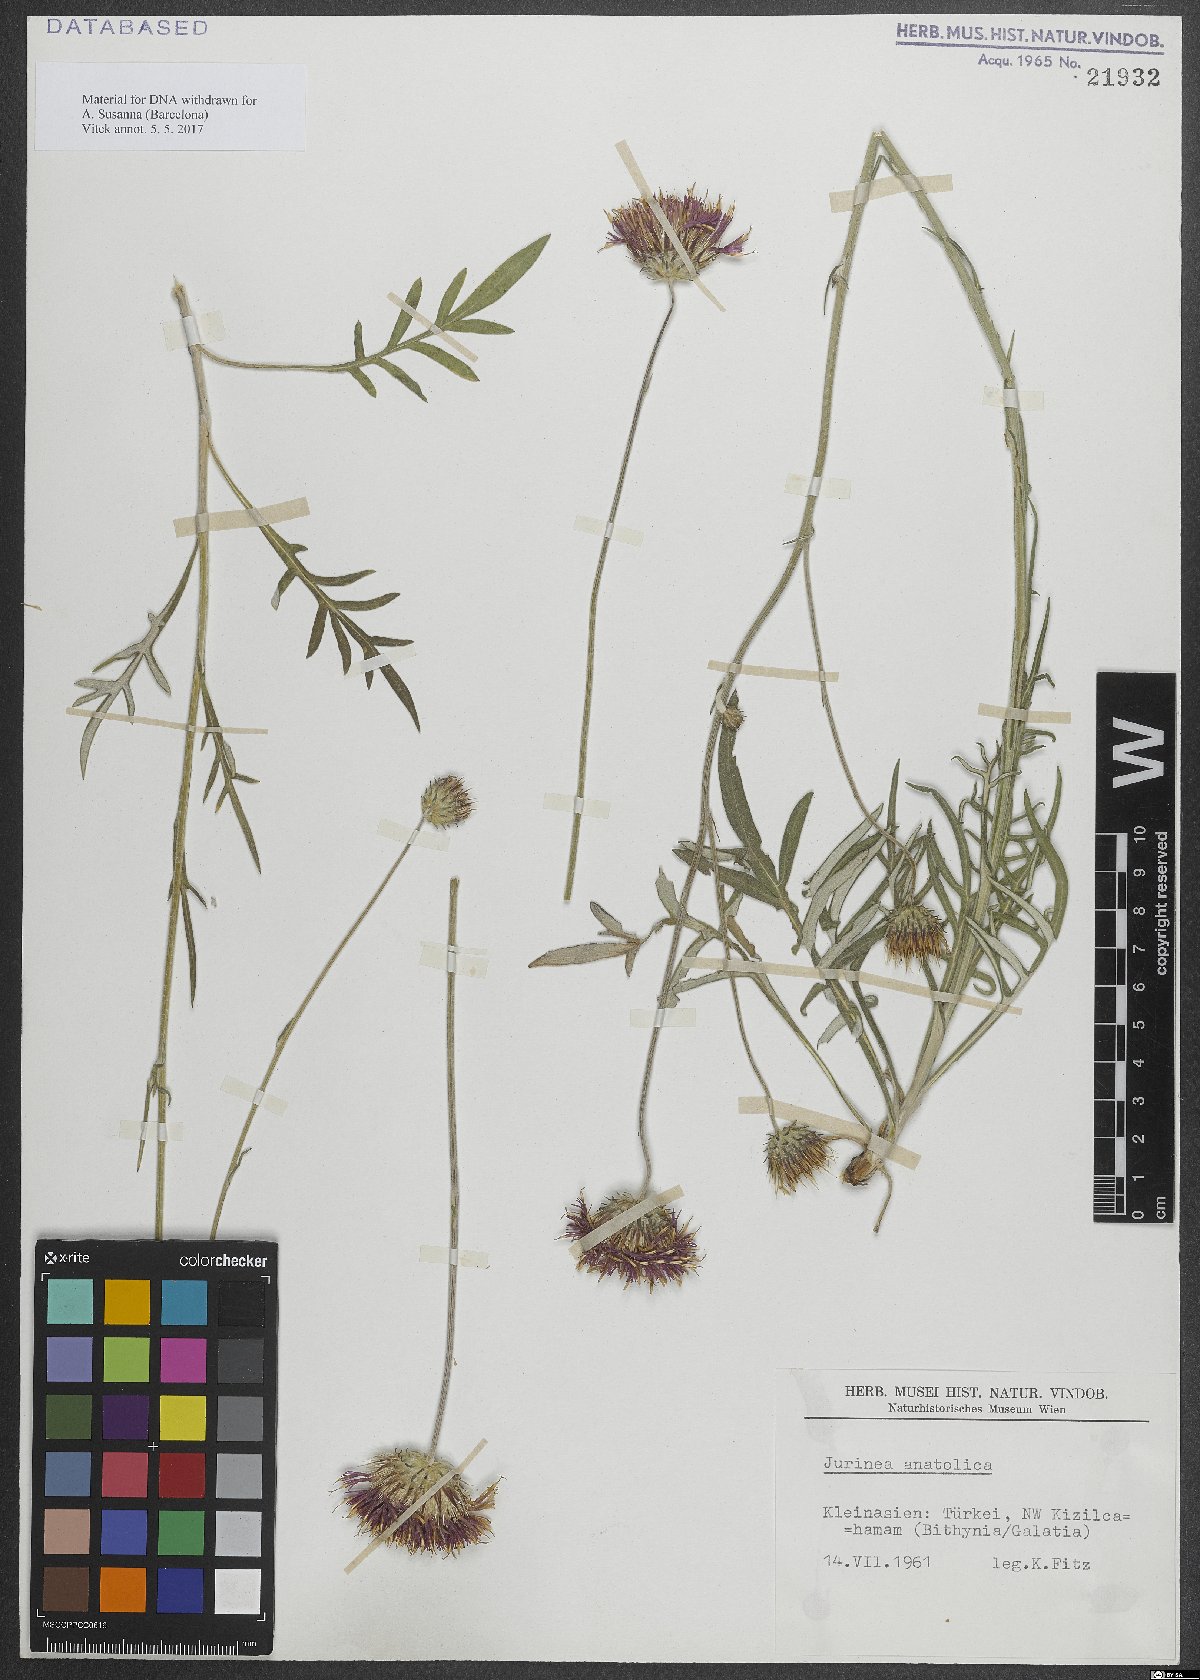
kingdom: Plantae
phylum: Tracheophyta
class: Magnoliopsida
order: Asterales
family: Asteraceae
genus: Jurinea
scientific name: Jurinea consanguinea
